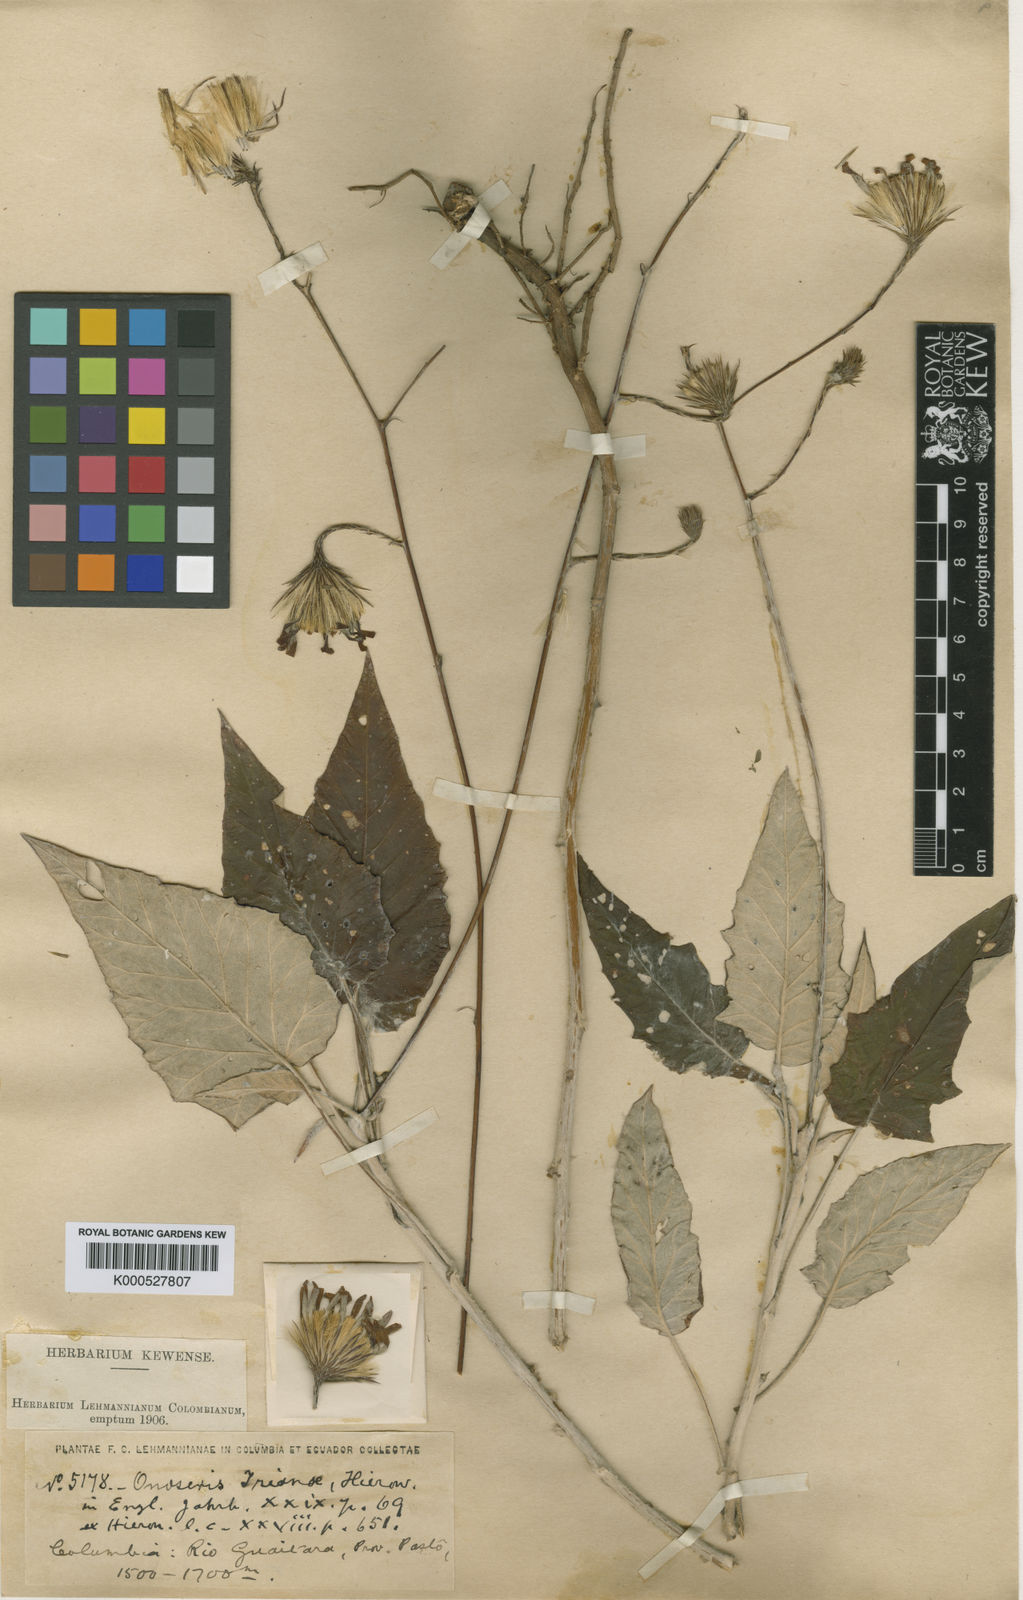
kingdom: Plantae
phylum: Tracheophyta
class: Magnoliopsida
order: Asterales
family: Asteraceae
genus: Onoseris
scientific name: Onoseris drakeana
